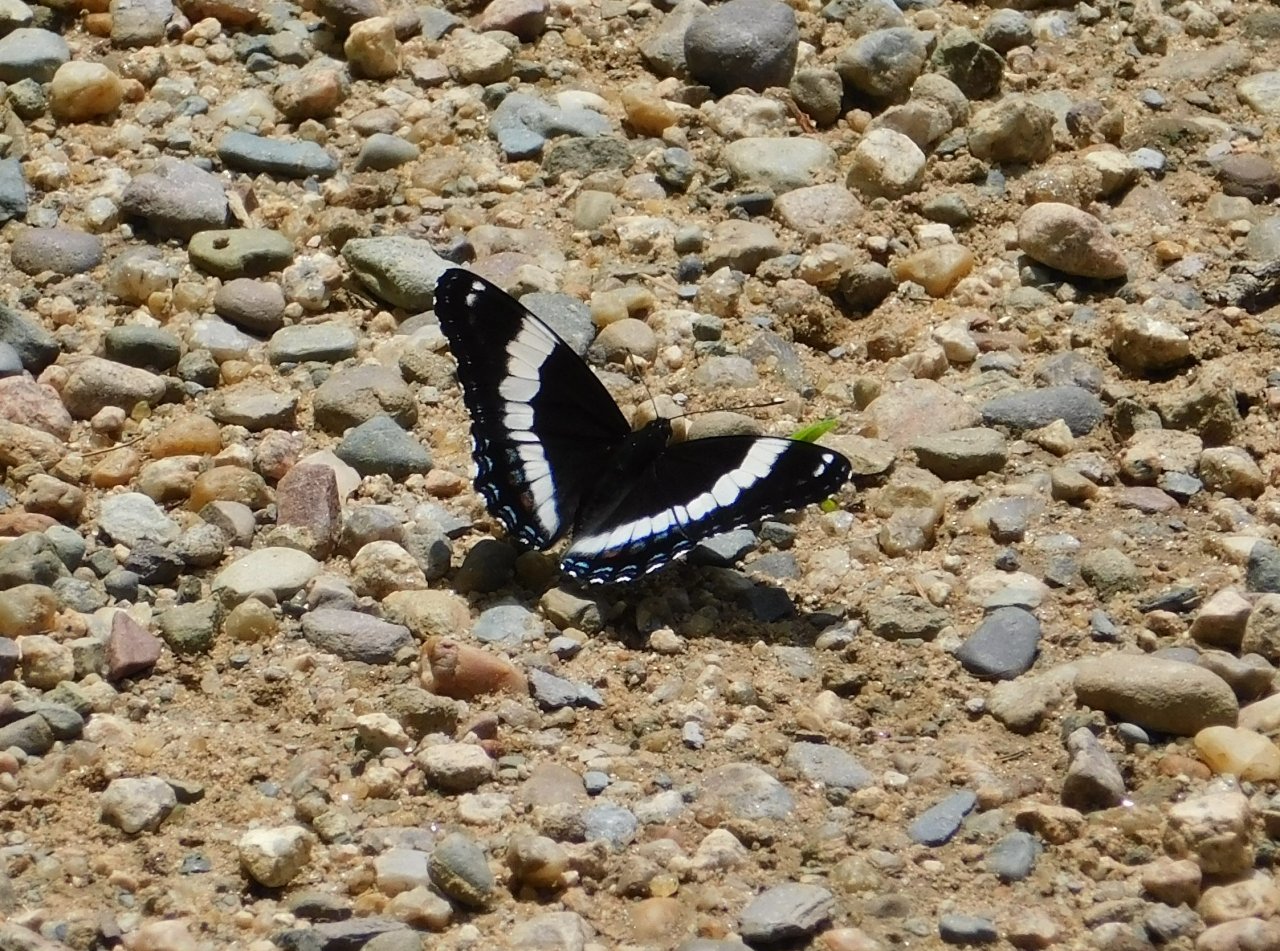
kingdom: Animalia
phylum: Arthropoda
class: Insecta
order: Lepidoptera
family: Nymphalidae
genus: Limenitis
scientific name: Limenitis arthemis
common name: Red-spotted Admiral
